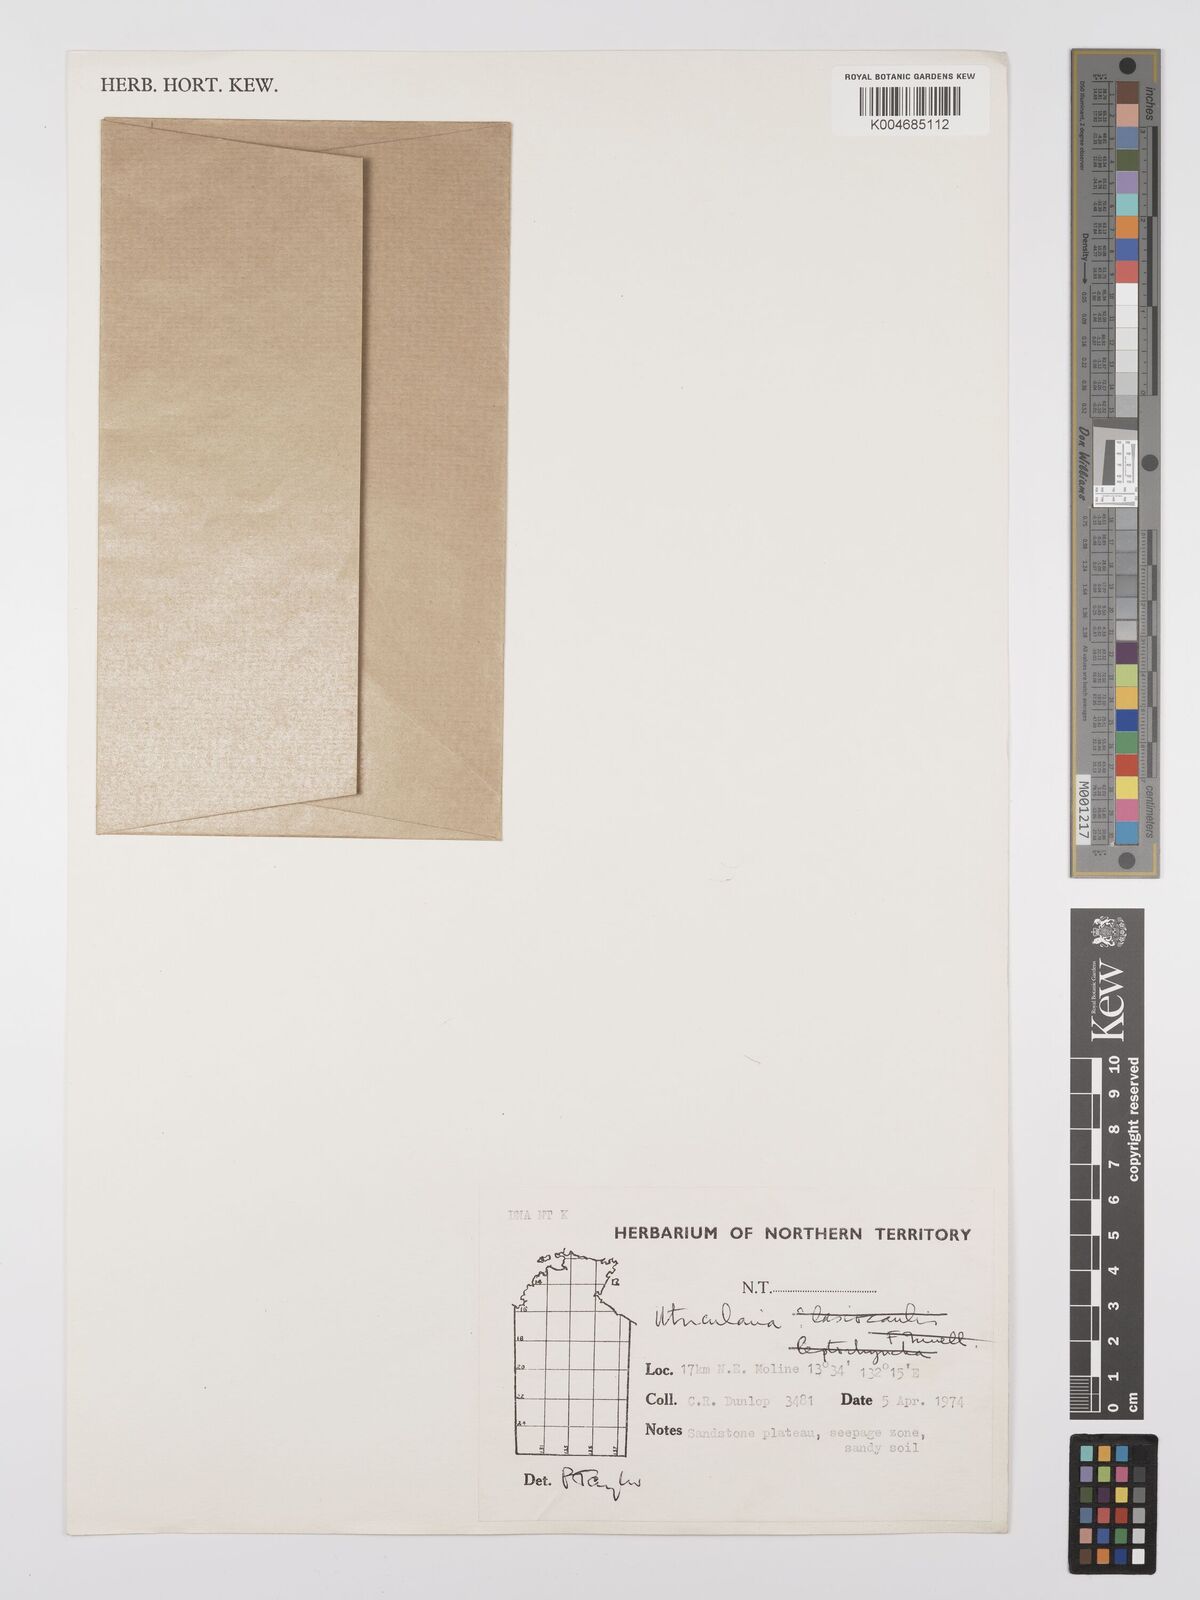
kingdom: Plantae
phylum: Tracheophyta
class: Magnoliopsida
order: Lamiales
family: Lentibulariaceae
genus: Utricularia
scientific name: Utricularia arnhemica
